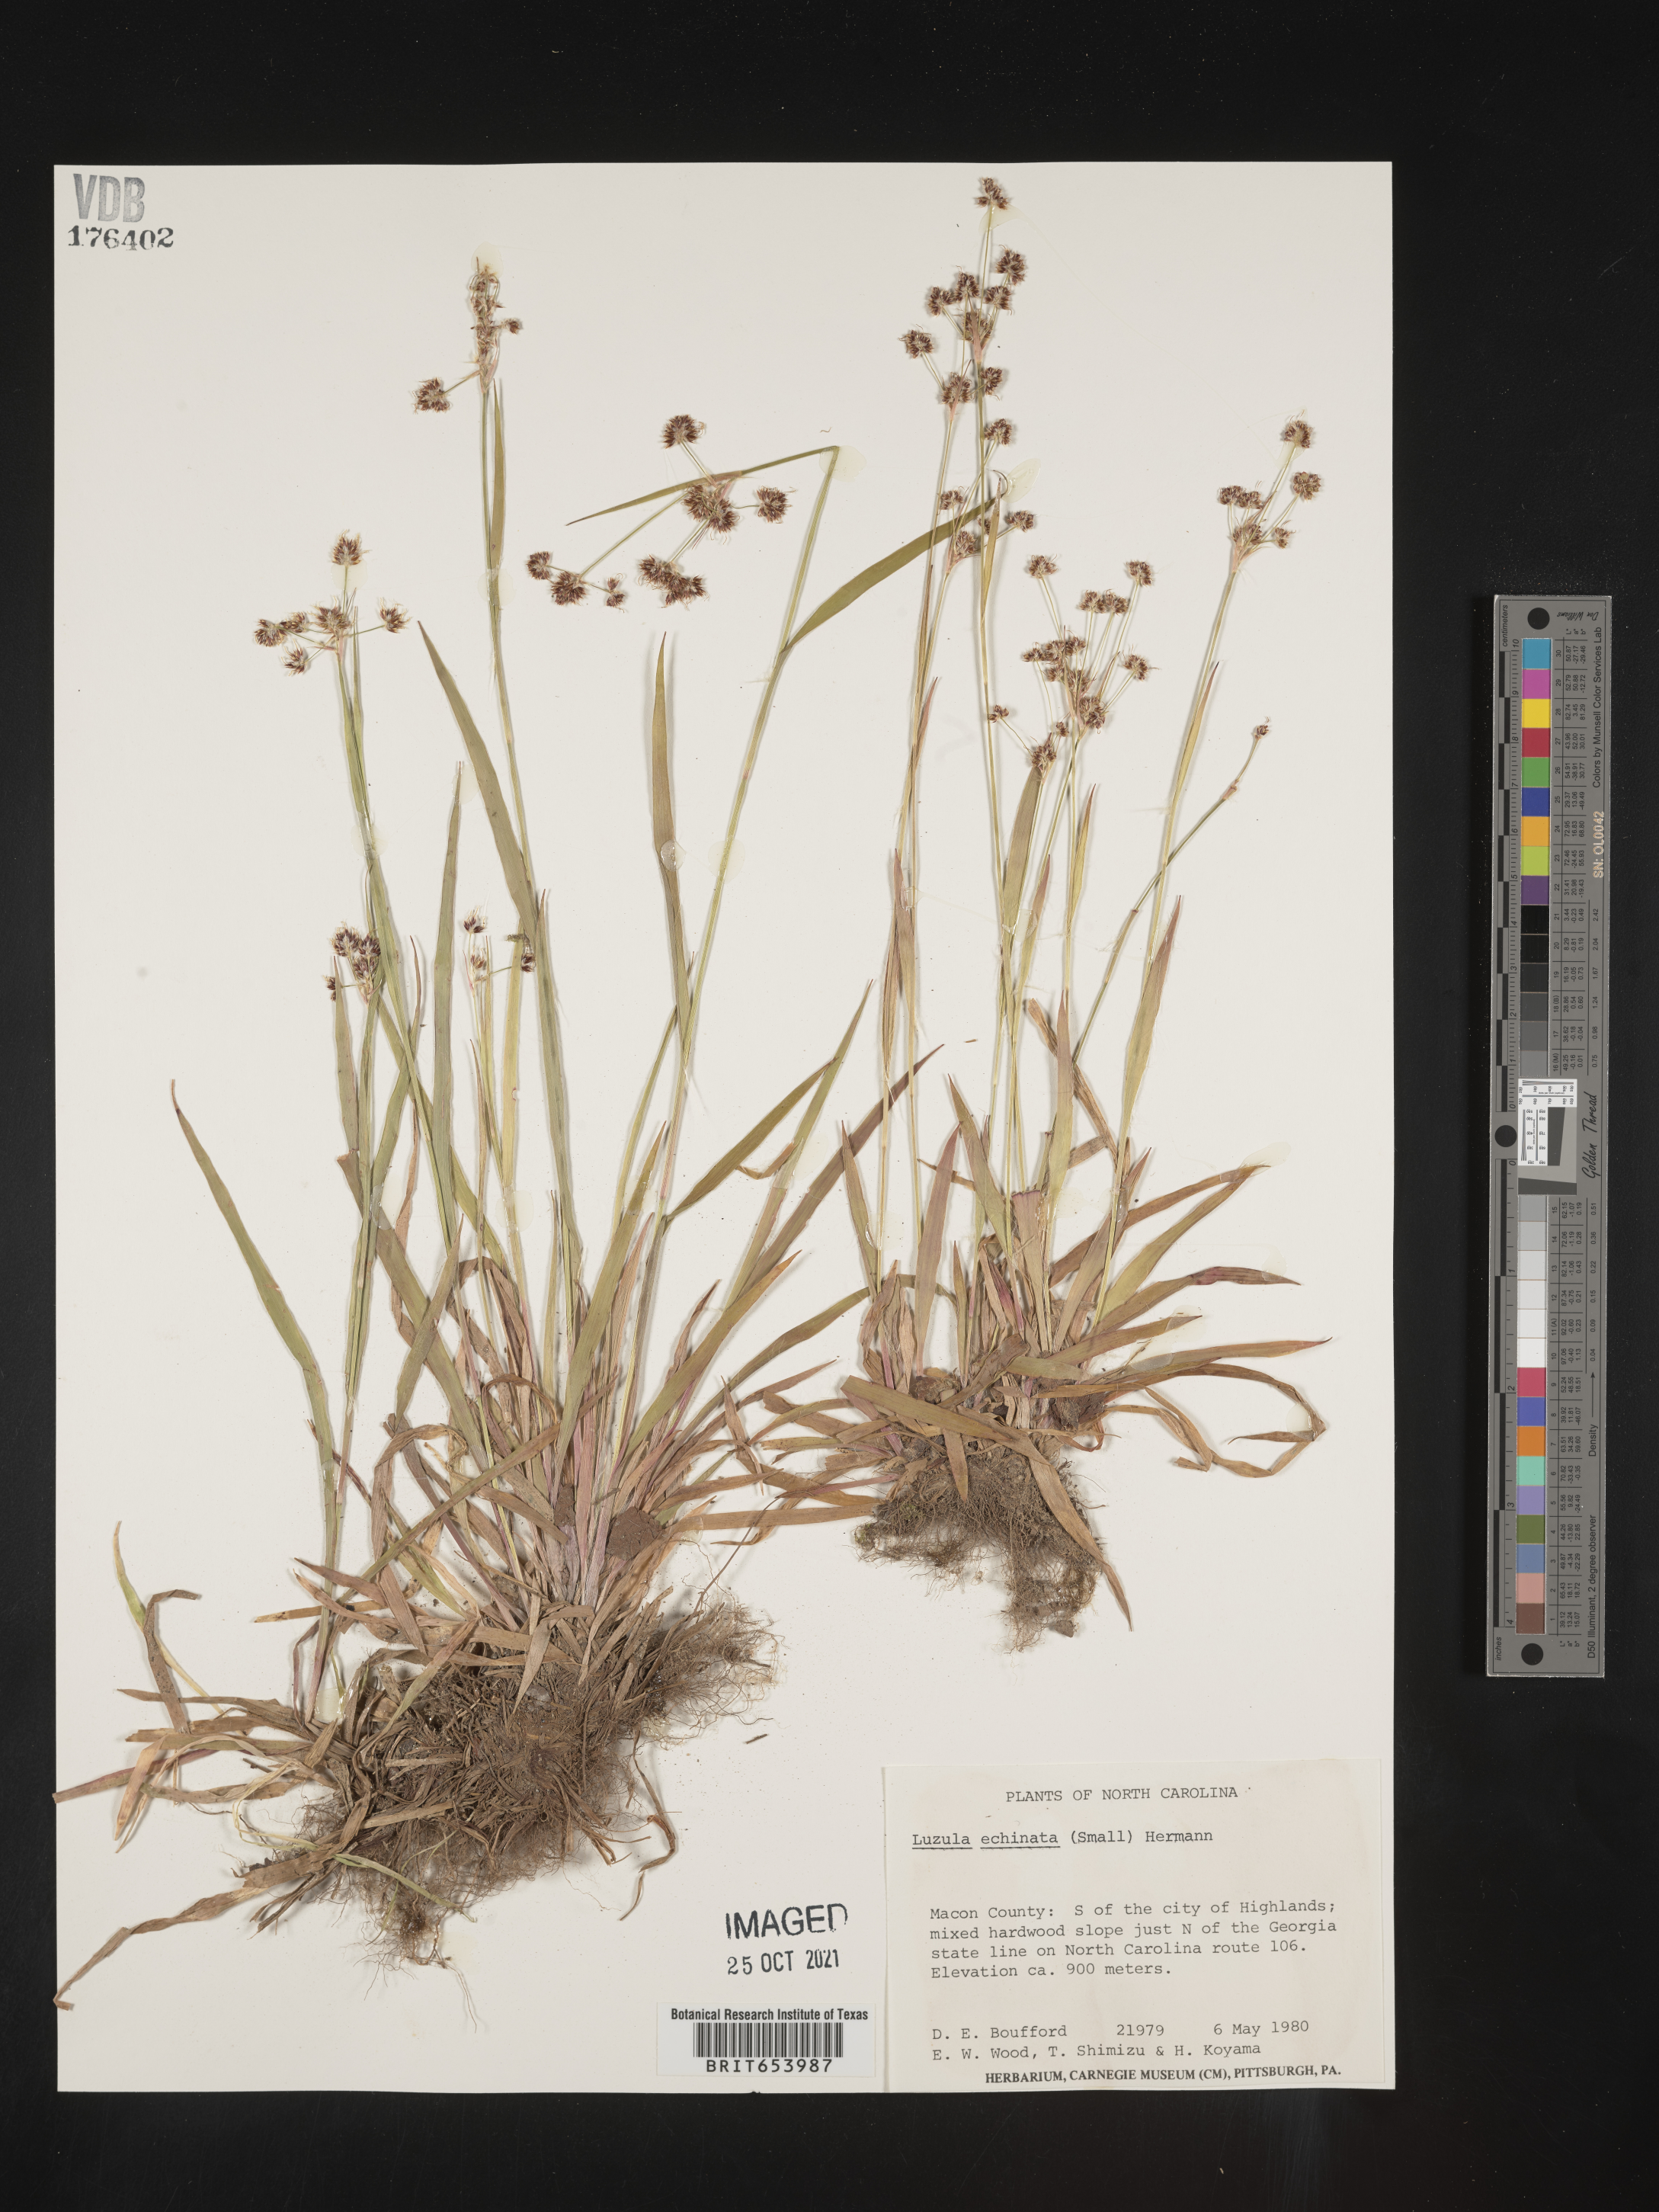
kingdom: Plantae
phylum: Tracheophyta
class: Liliopsida
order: Poales
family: Juncaceae
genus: Luzula
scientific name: Luzula echinata
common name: Hedgehog woodrush
